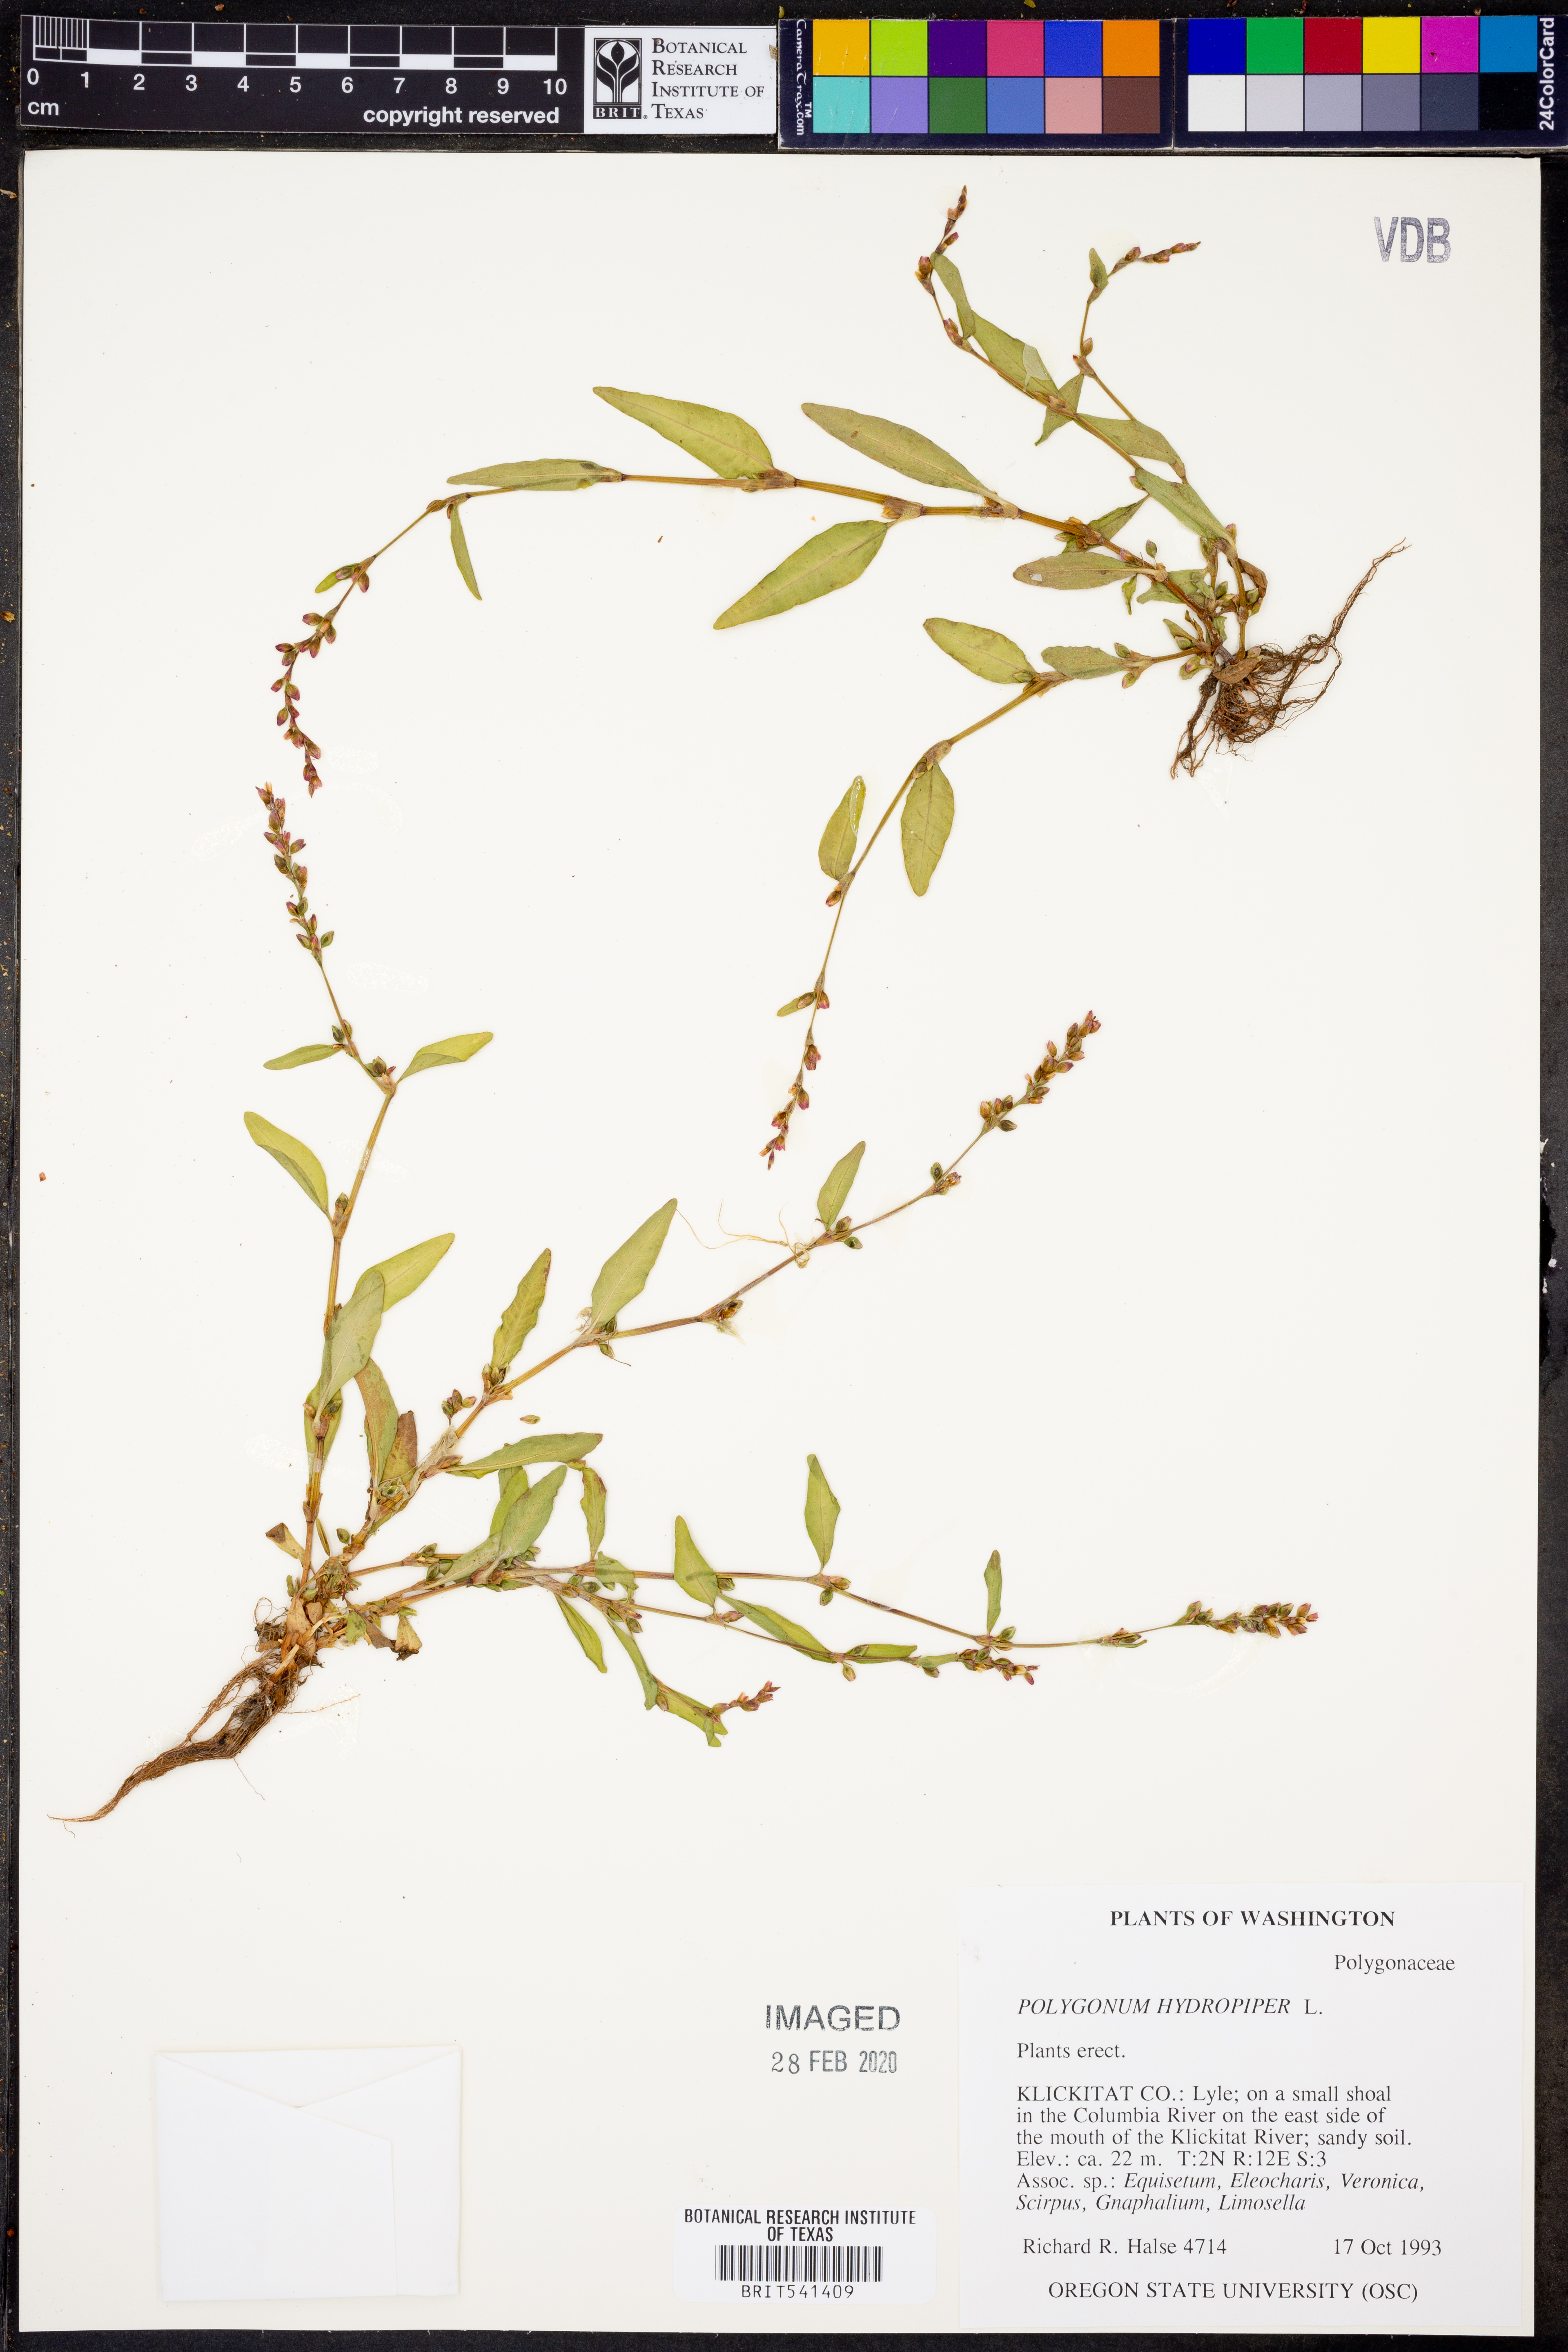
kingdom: Plantae
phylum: Tracheophyta
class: Magnoliopsida
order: Caryophyllales
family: Polygonaceae
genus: Persicaria
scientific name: Persicaria hydropiper
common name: Water-pepper
